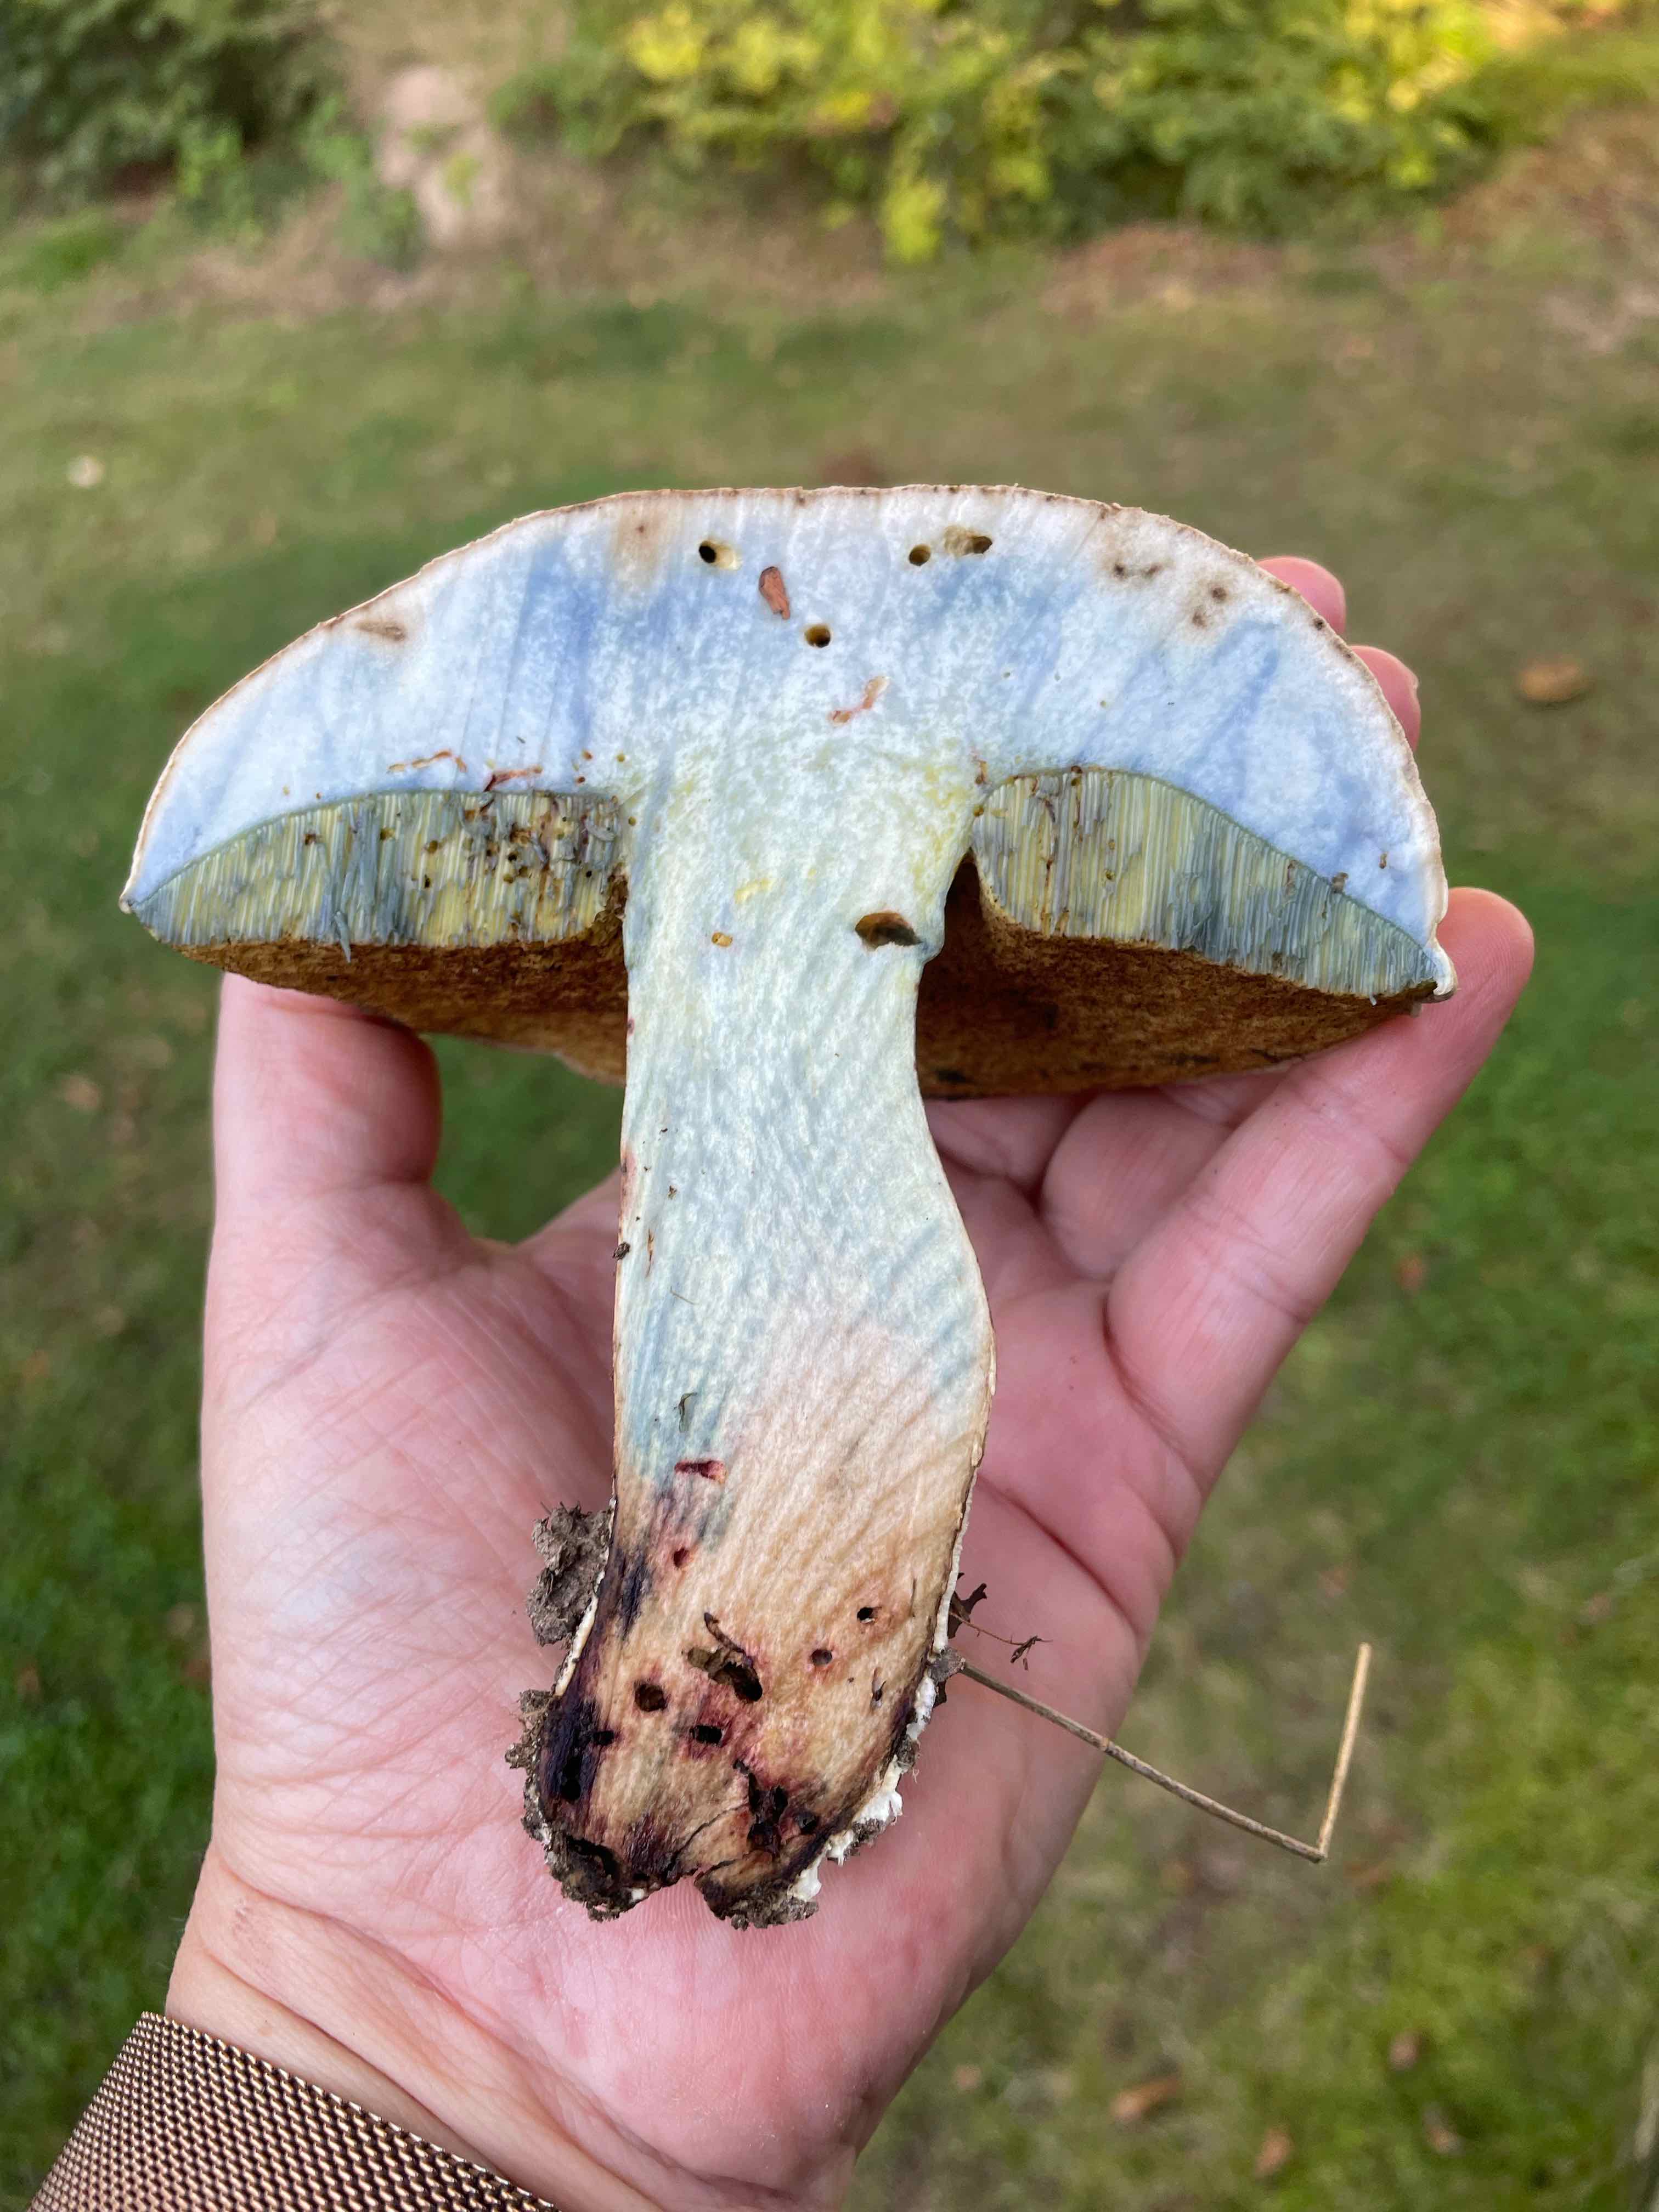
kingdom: Fungi
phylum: Basidiomycota
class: Agaricomycetes
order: Boletales
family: Boletaceae
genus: Caloboletus
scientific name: Caloboletus radicans
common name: rod-rørhat
